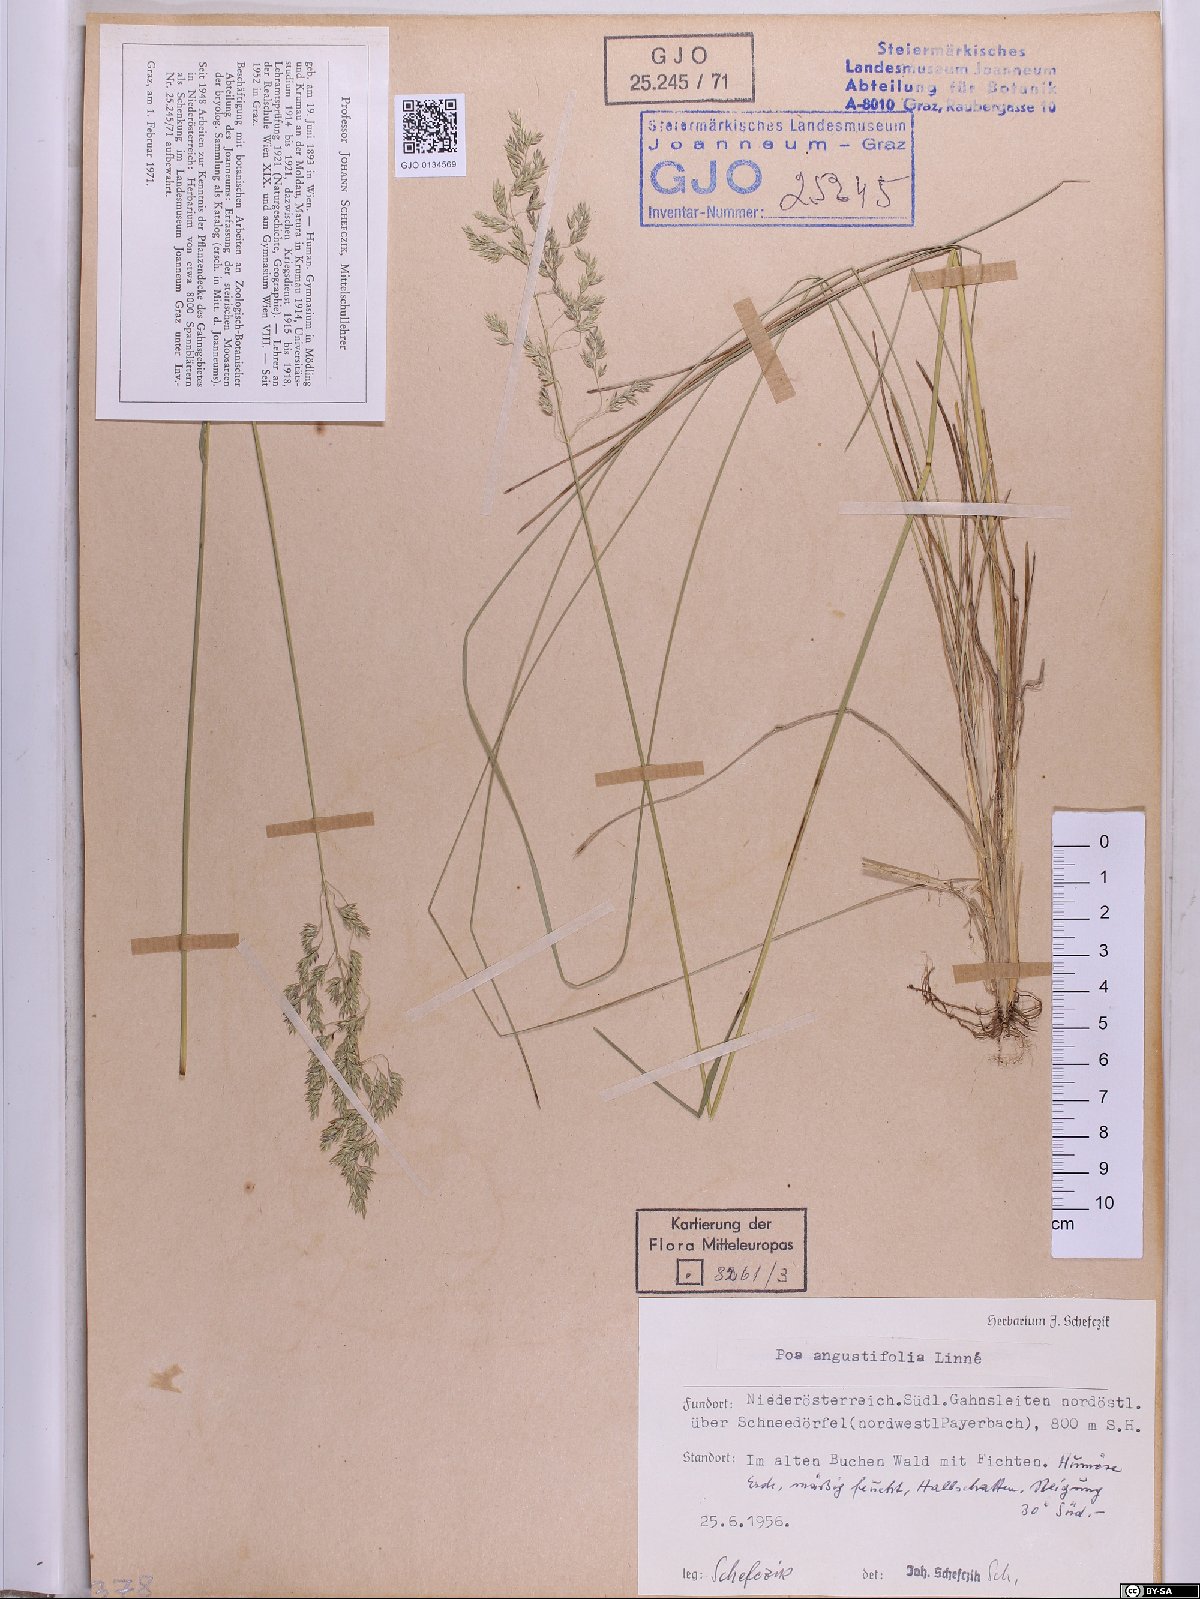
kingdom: Plantae
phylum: Tracheophyta
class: Liliopsida
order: Poales
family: Poaceae
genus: Poa
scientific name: Poa angustifolia
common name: Narrow-leaved meadow-grass
